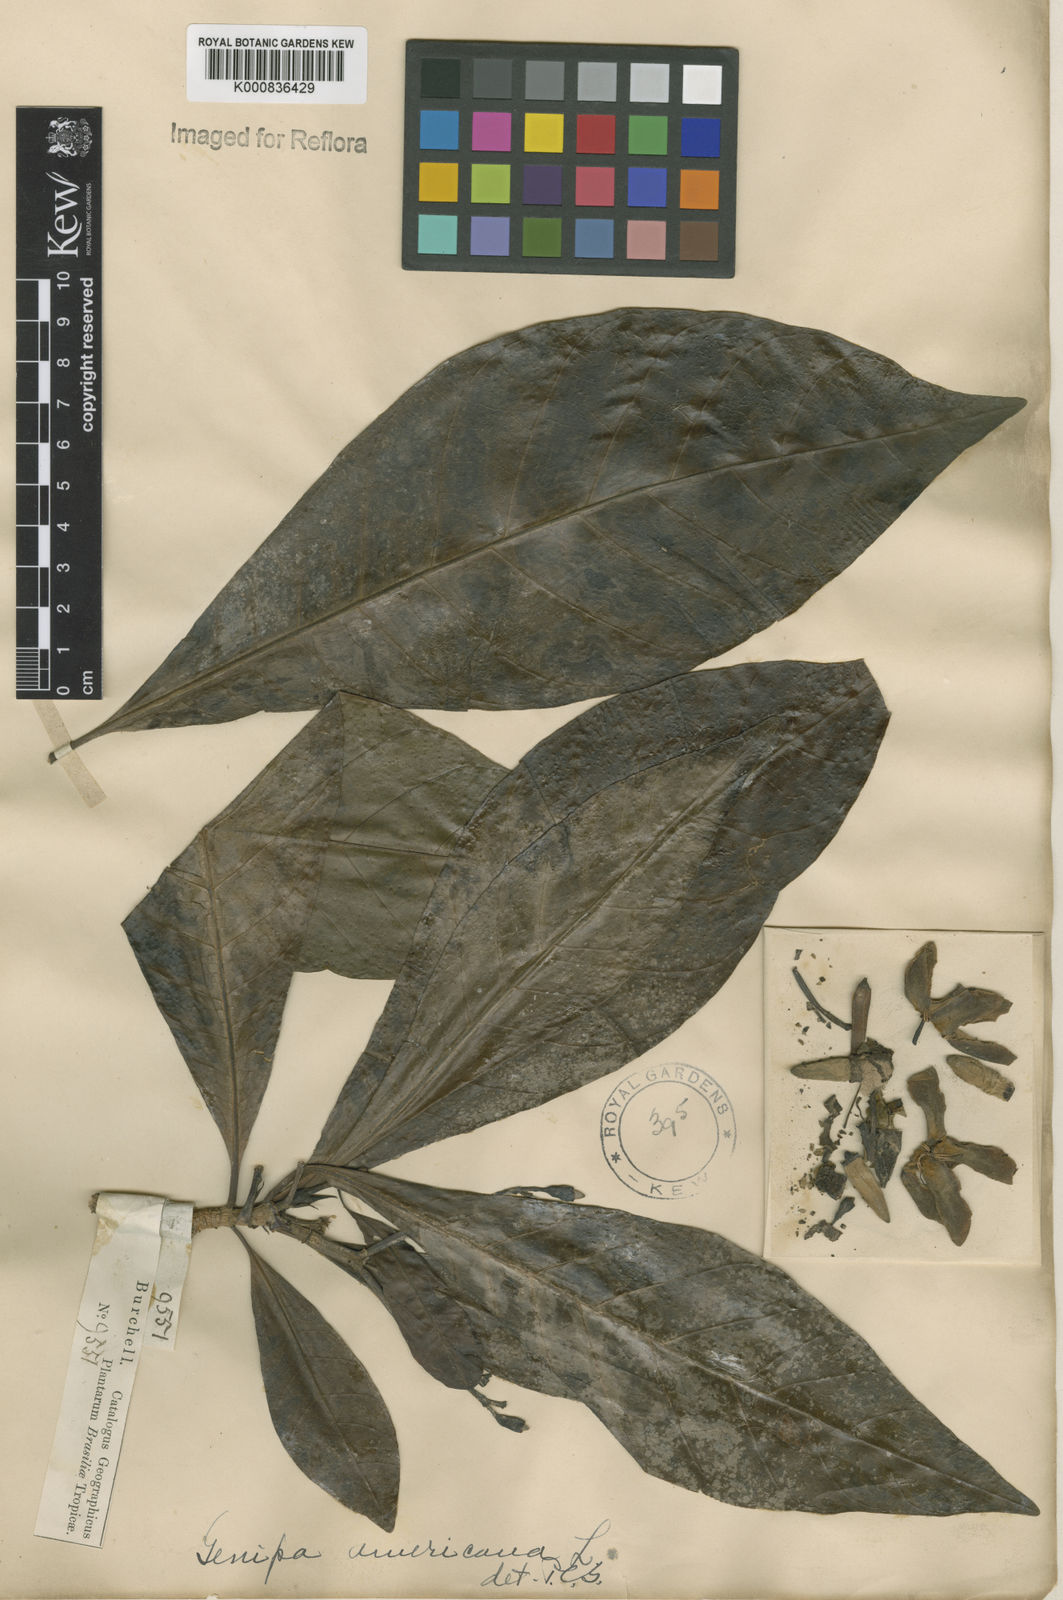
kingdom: Plantae
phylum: Tracheophyta
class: Magnoliopsida
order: Gentianales
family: Rubiaceae
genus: Genipa
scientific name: Genipa americana
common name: Genipap
